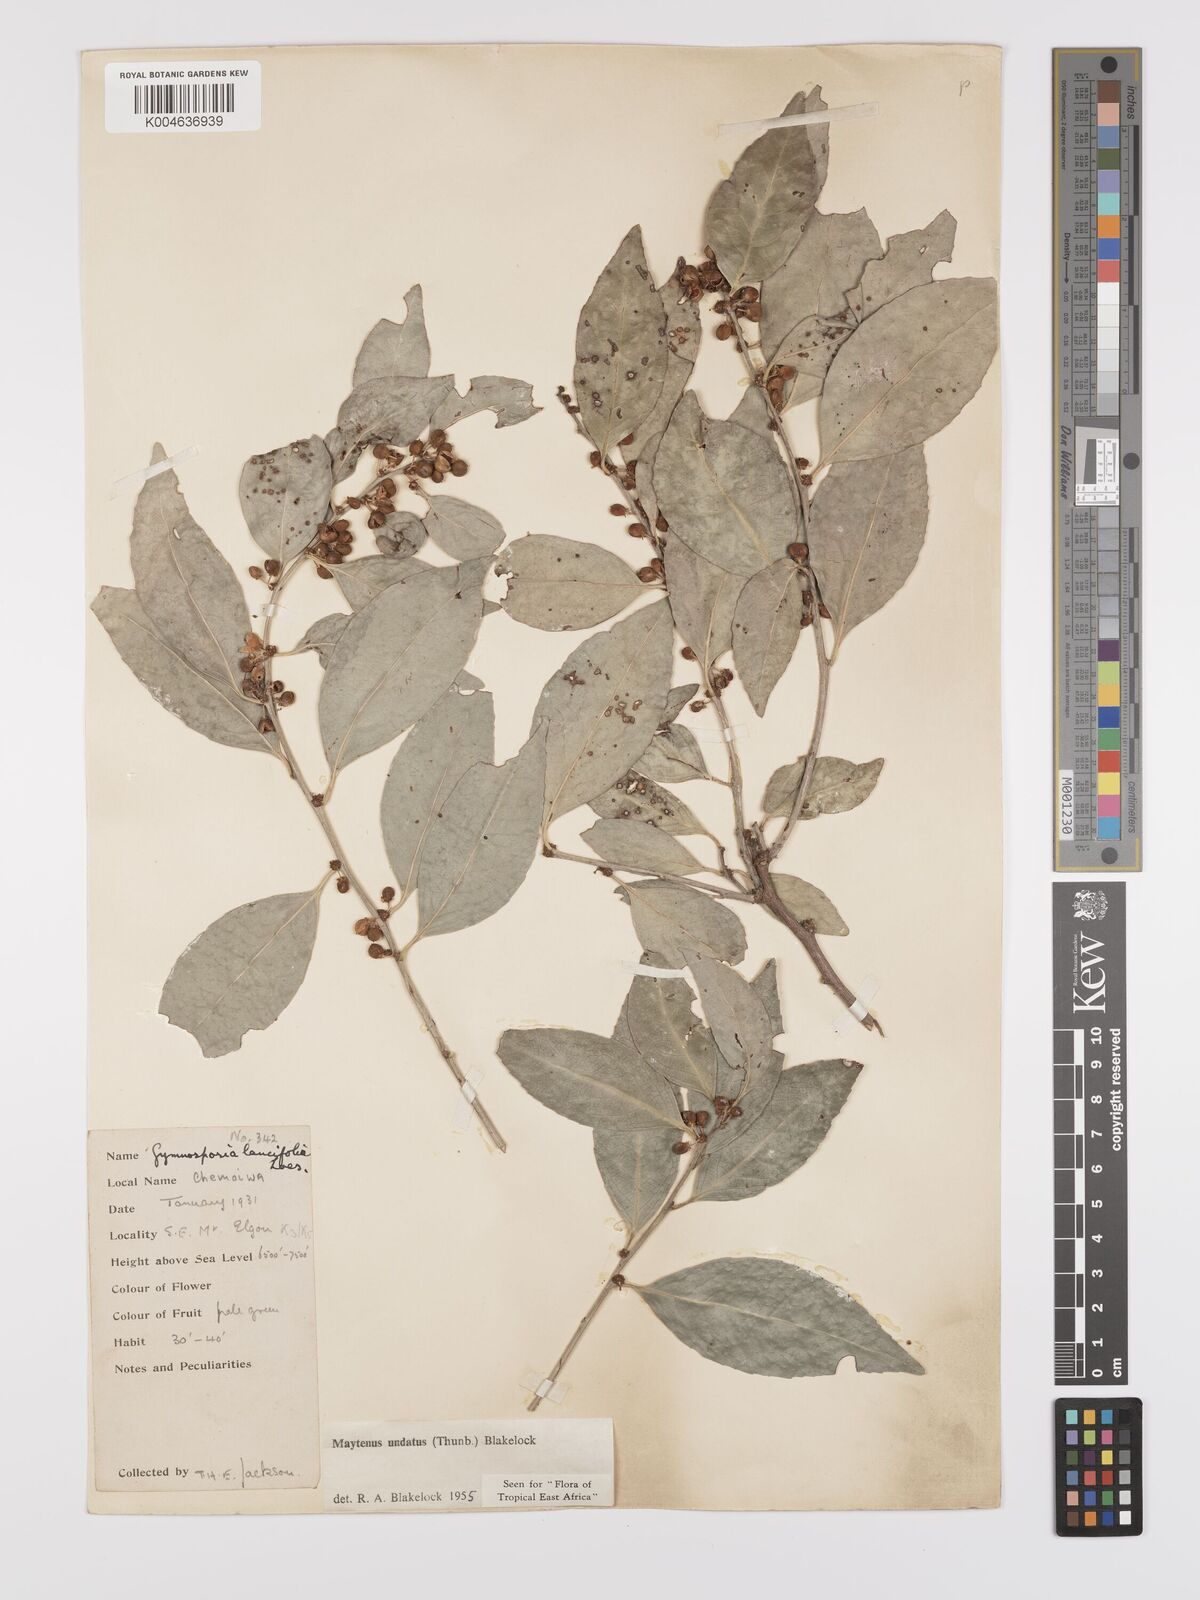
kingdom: Plantae
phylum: Tracheophyta
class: Magnoliopsida
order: Celastrales
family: Celastraceae
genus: Gymnosporia
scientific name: Gymnosporia undata
